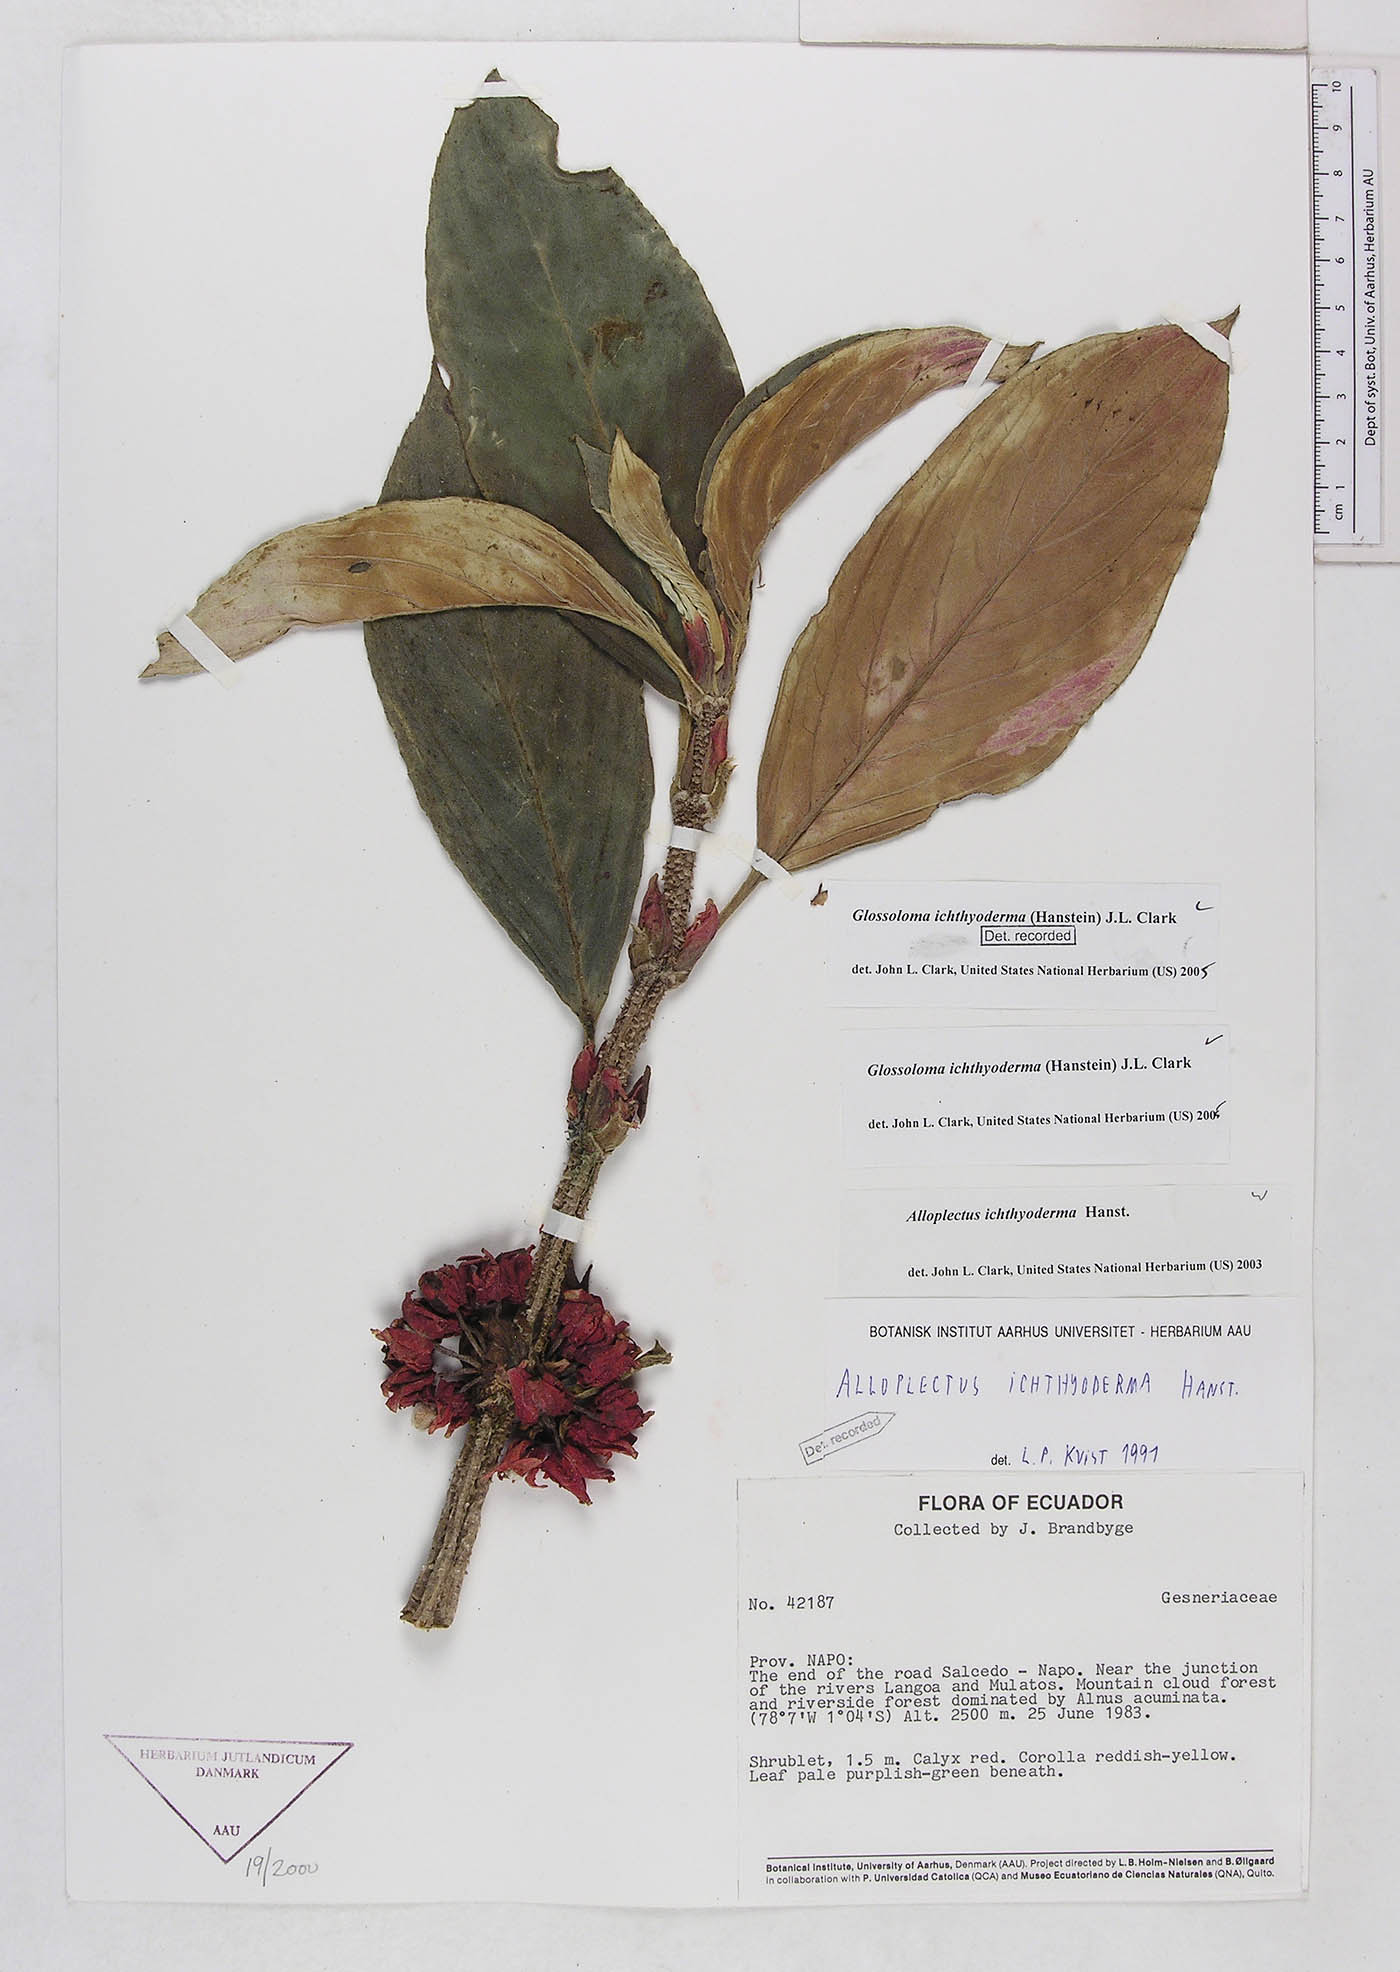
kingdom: Plantae
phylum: Tracheophyta
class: Magnoliopsida
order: Lamiales
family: Gesneriaceae
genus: Glossoloma
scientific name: Glossoloma ichthyoderma
